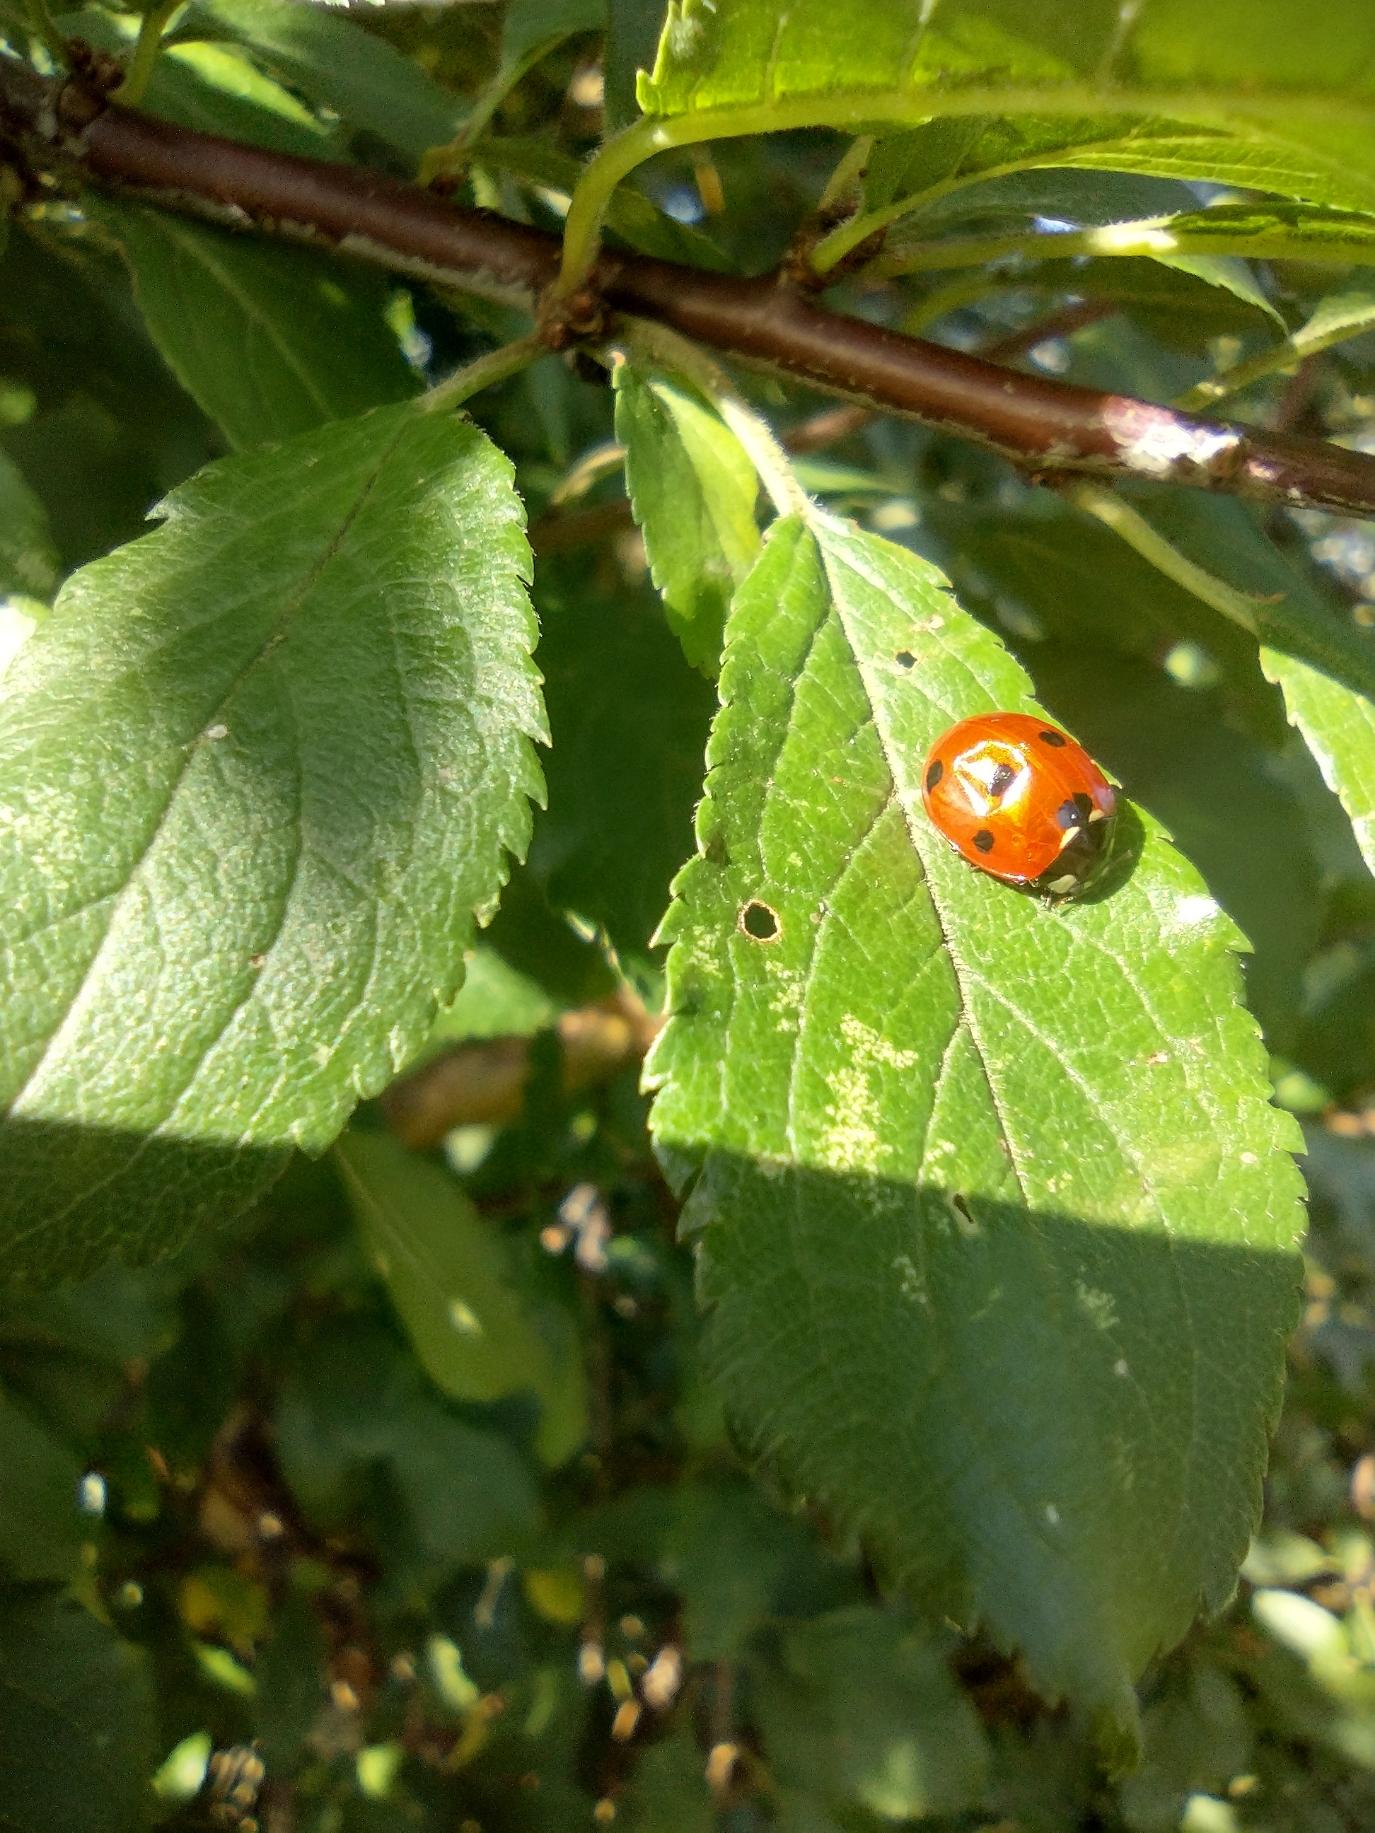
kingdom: Animalia
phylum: Arthropoda
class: Insecta
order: Coleoptera
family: Coccinellidae
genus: Coccinella
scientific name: Coccinella septempunctata
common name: Syvplettet mariehøne
